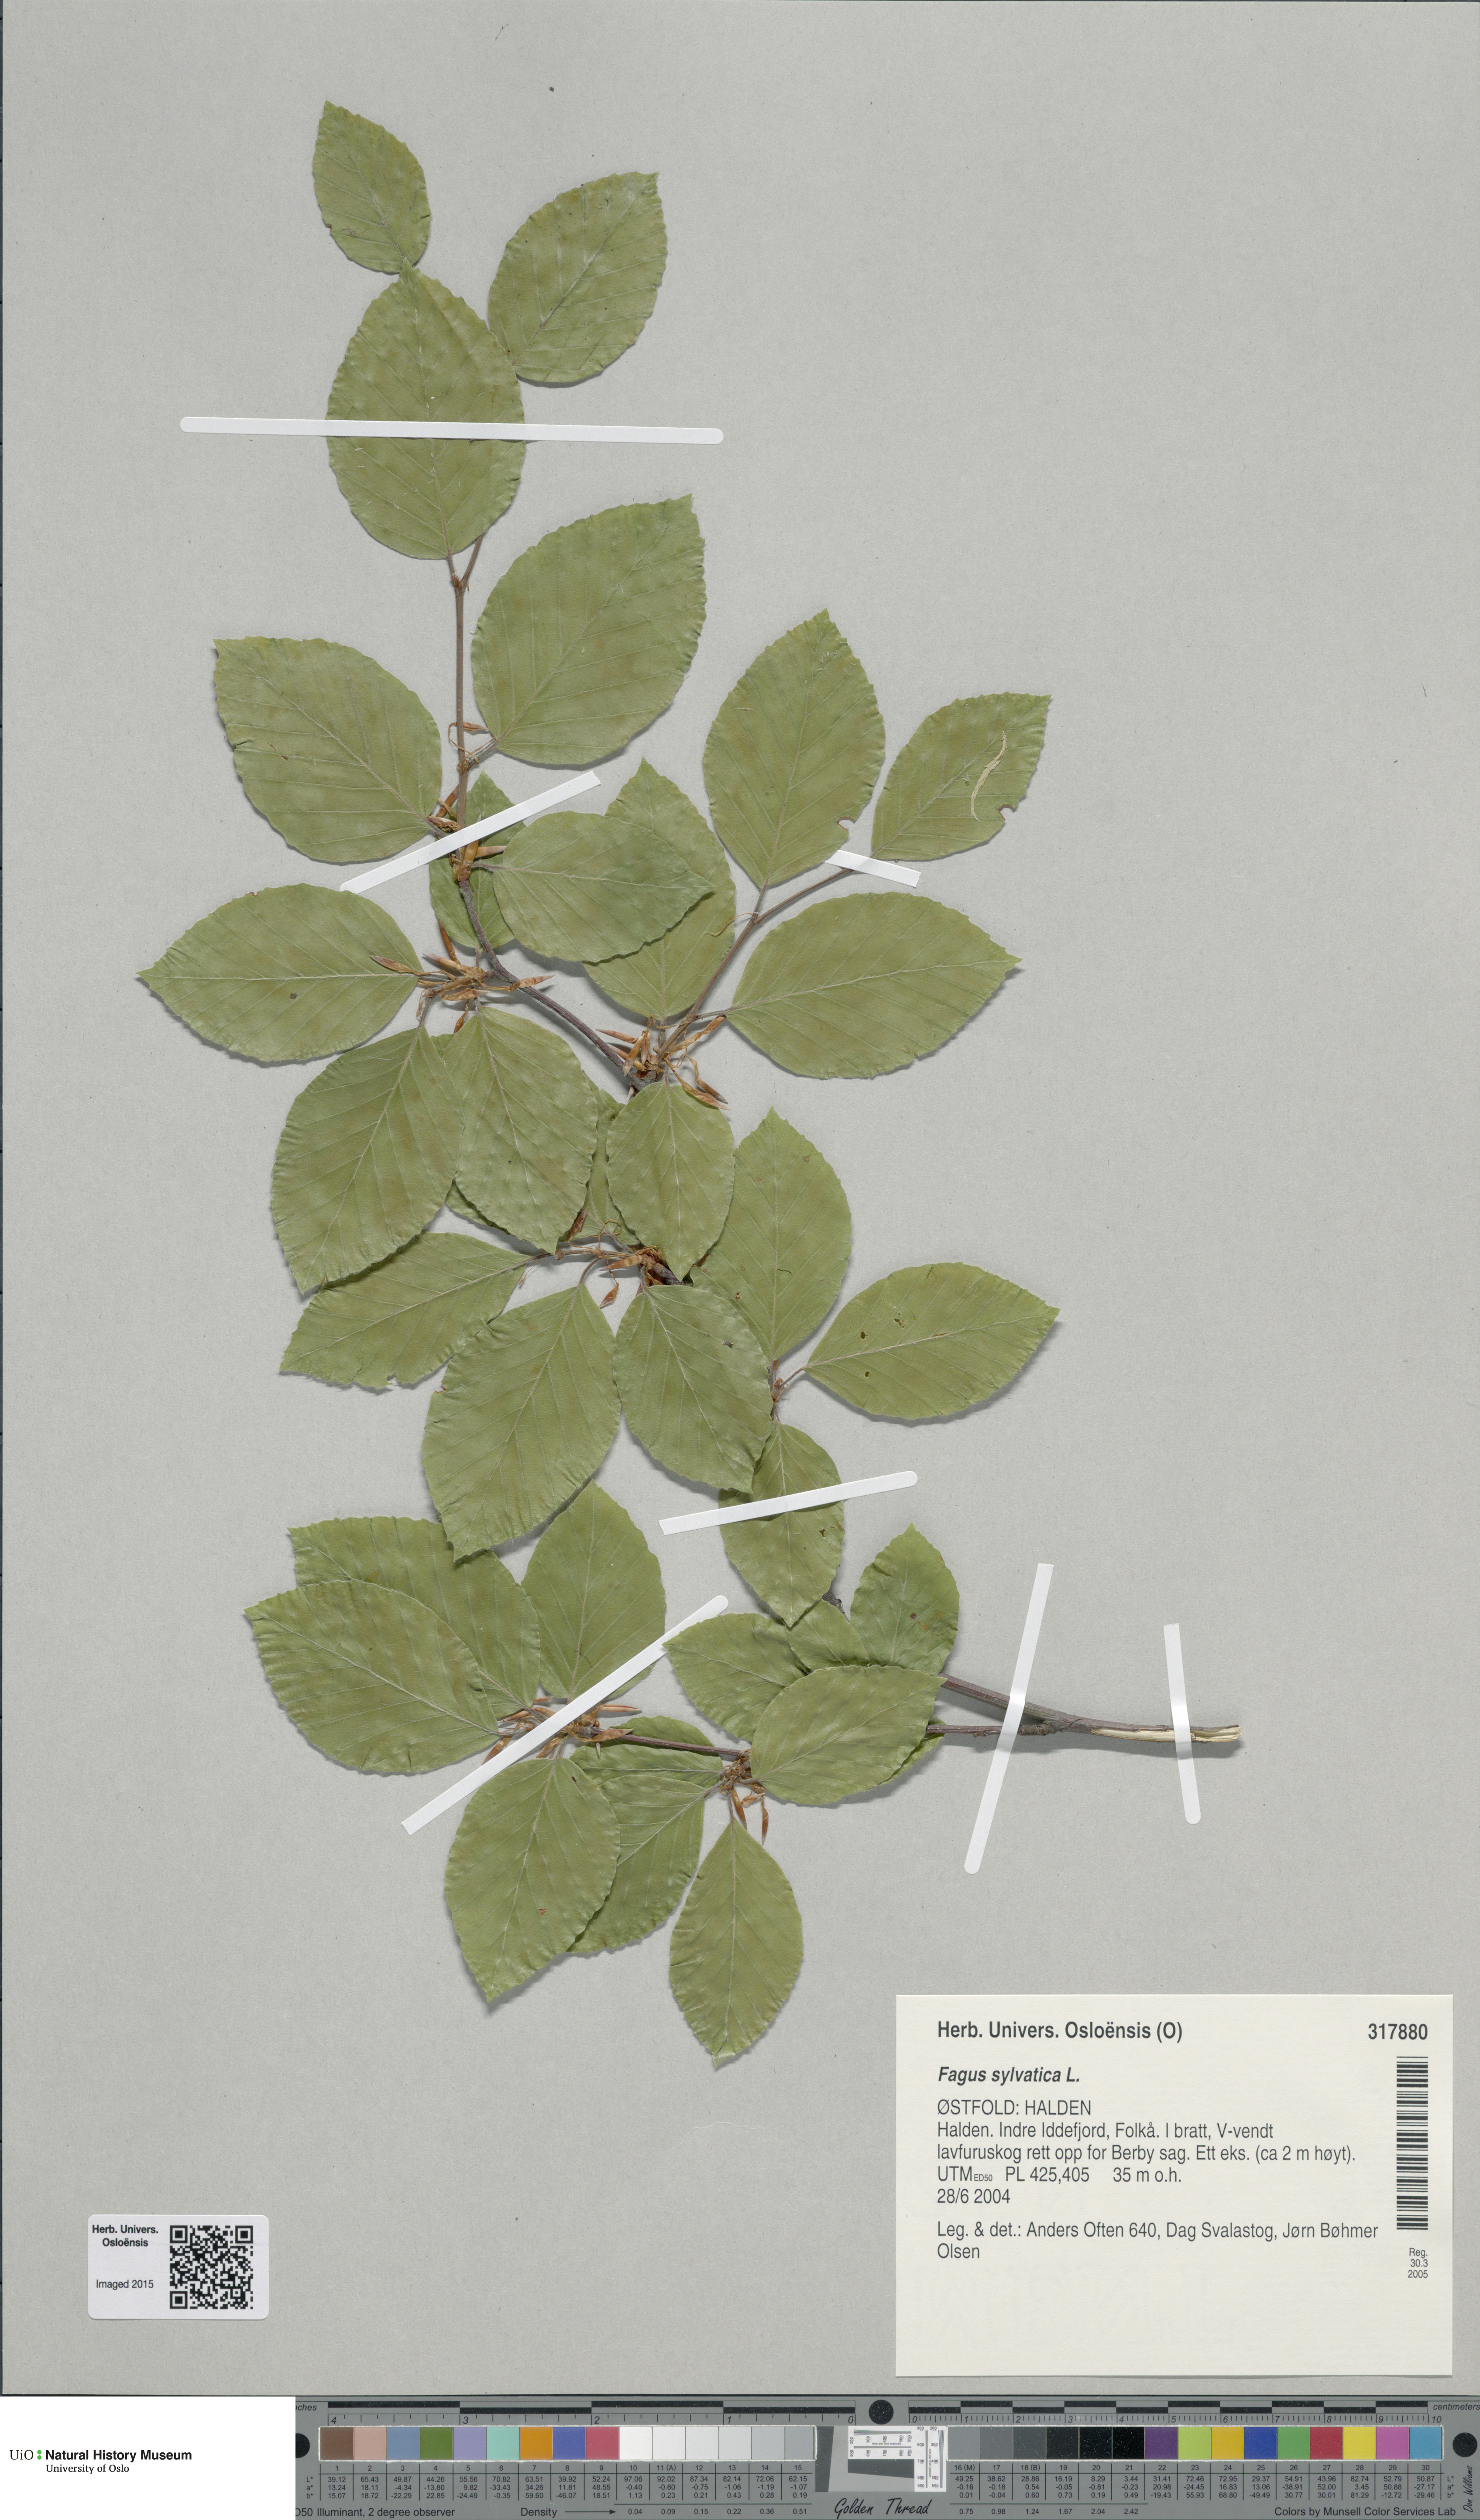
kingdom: Plantae
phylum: Tracheophyta
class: Magnoliopsida
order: Fagales
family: Fagaceae
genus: Fagus
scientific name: Fagus sylvatica
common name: Beech
